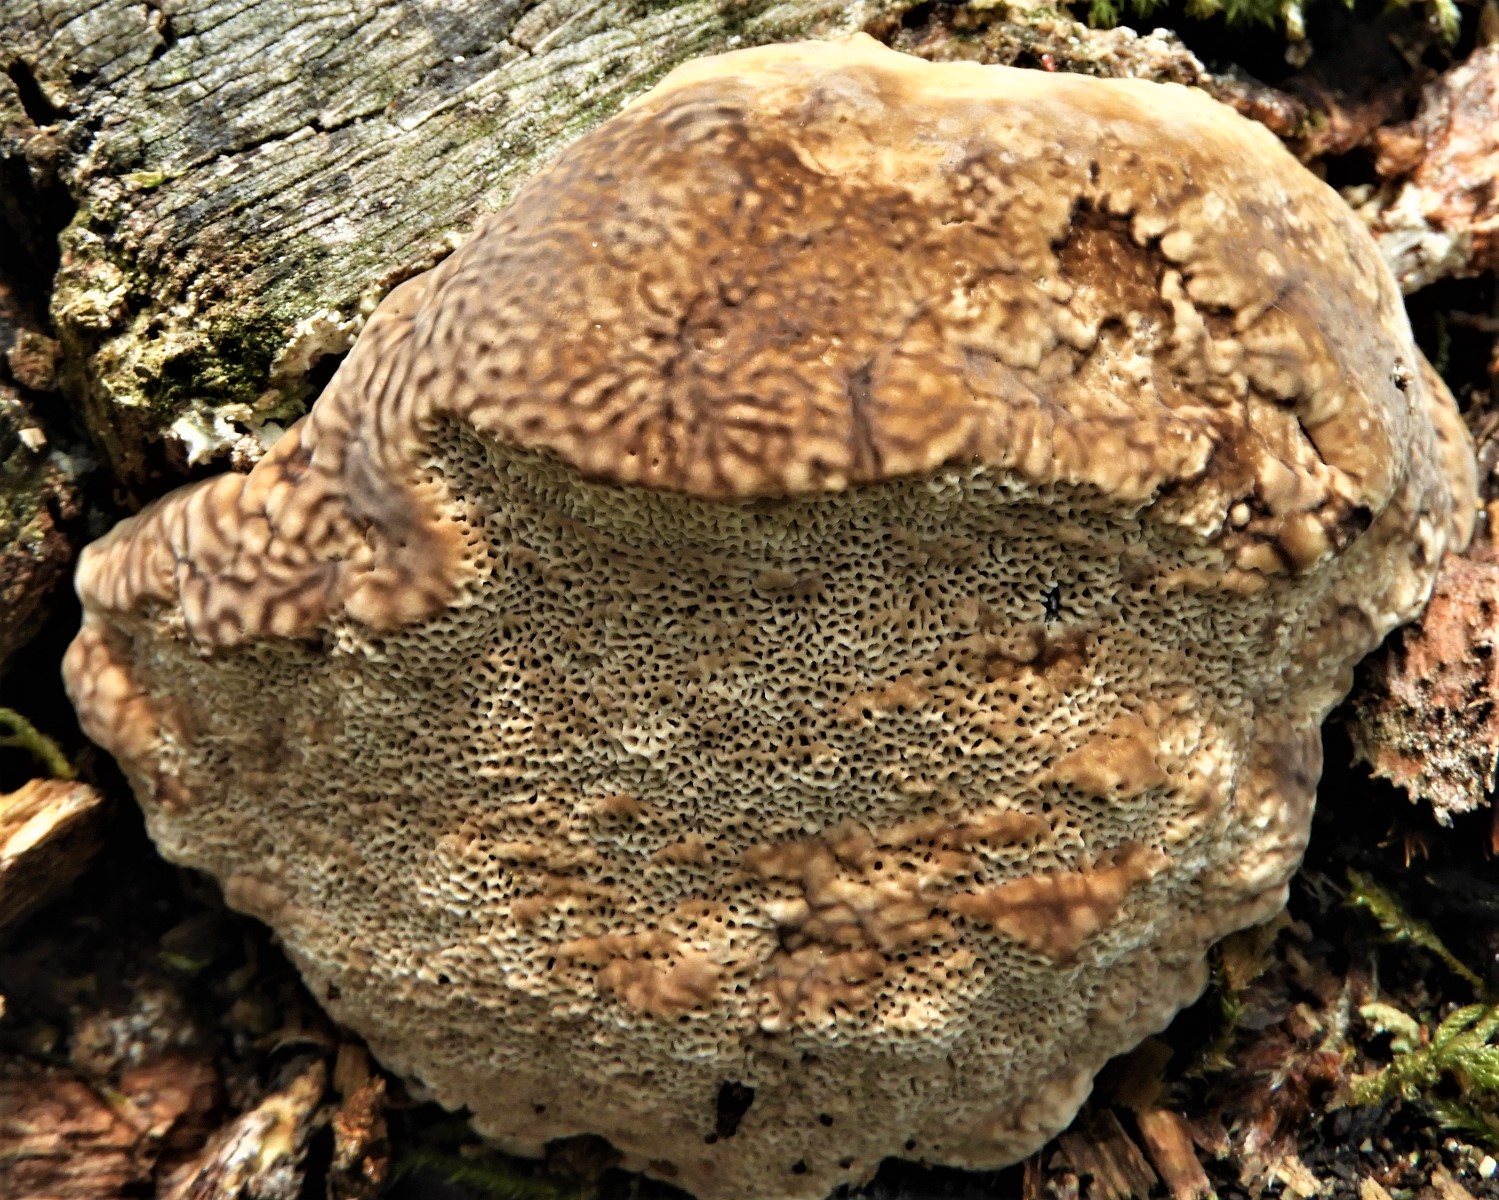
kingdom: Fungi
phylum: Basidiomycota
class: Agaricomycetes
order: Polyporales
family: Polyporaceae
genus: Trametes
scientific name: Trametes gibbosa
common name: puklet læderporesvamp
